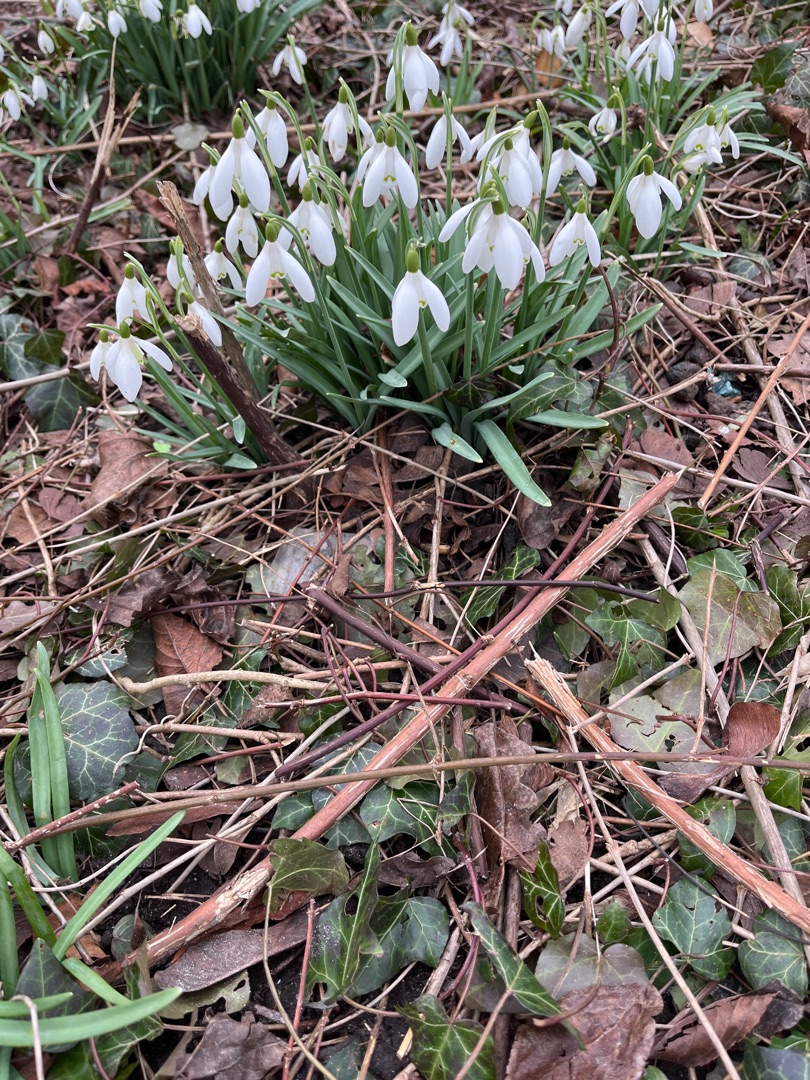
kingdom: Plantae
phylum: Tracheophyta
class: Liliopsida
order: Asparagales
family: Amaryllidaceae
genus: Galanthus
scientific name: Galanthus nivalis
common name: Vintergæk
